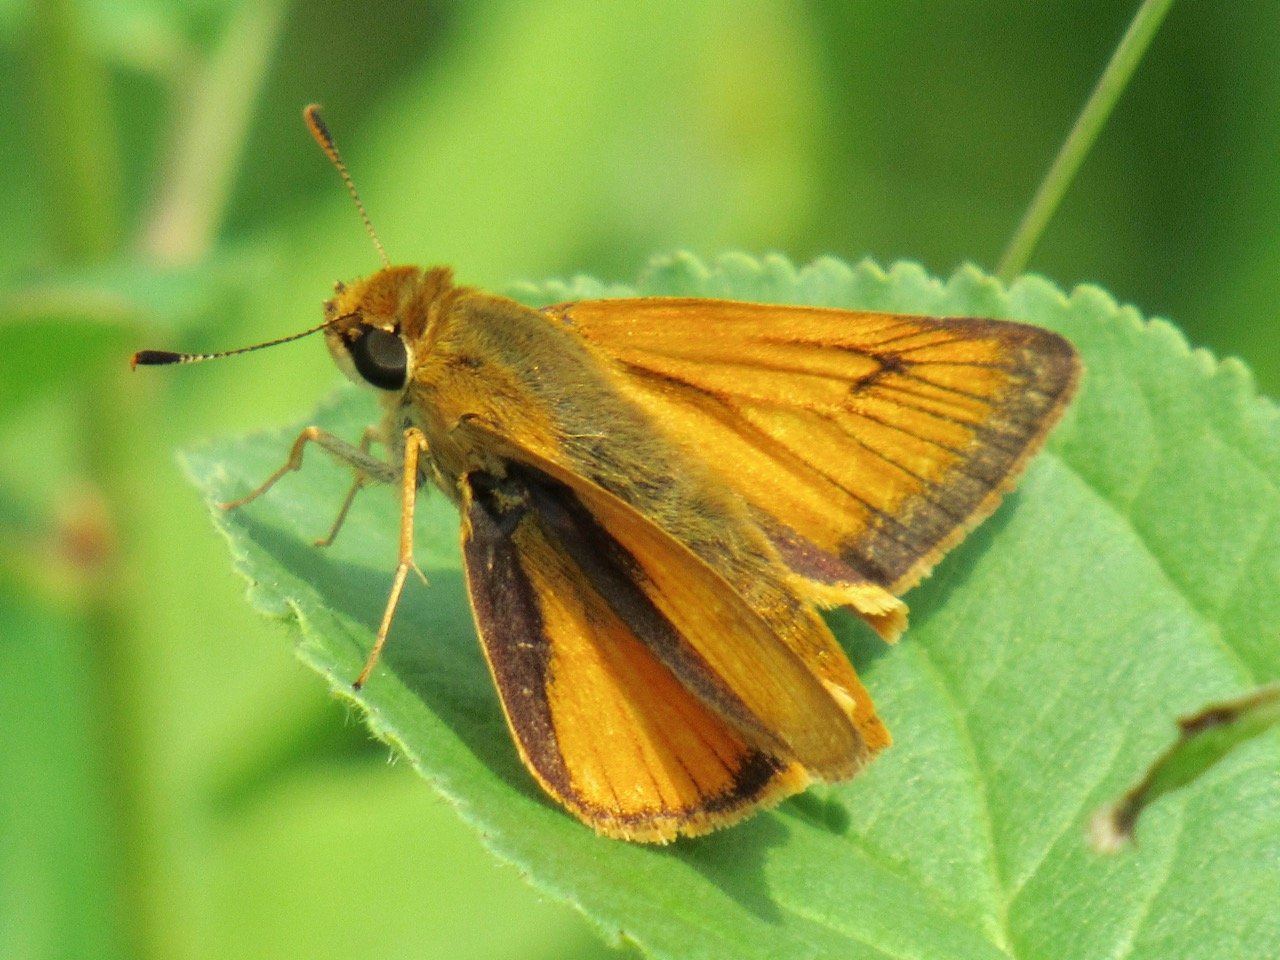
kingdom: Animalia
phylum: Arthropoda
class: Insecta
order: Lepidoptera
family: Hesperiidae
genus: Atrytone
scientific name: Atrytone delaware
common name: Delaware Skipper
